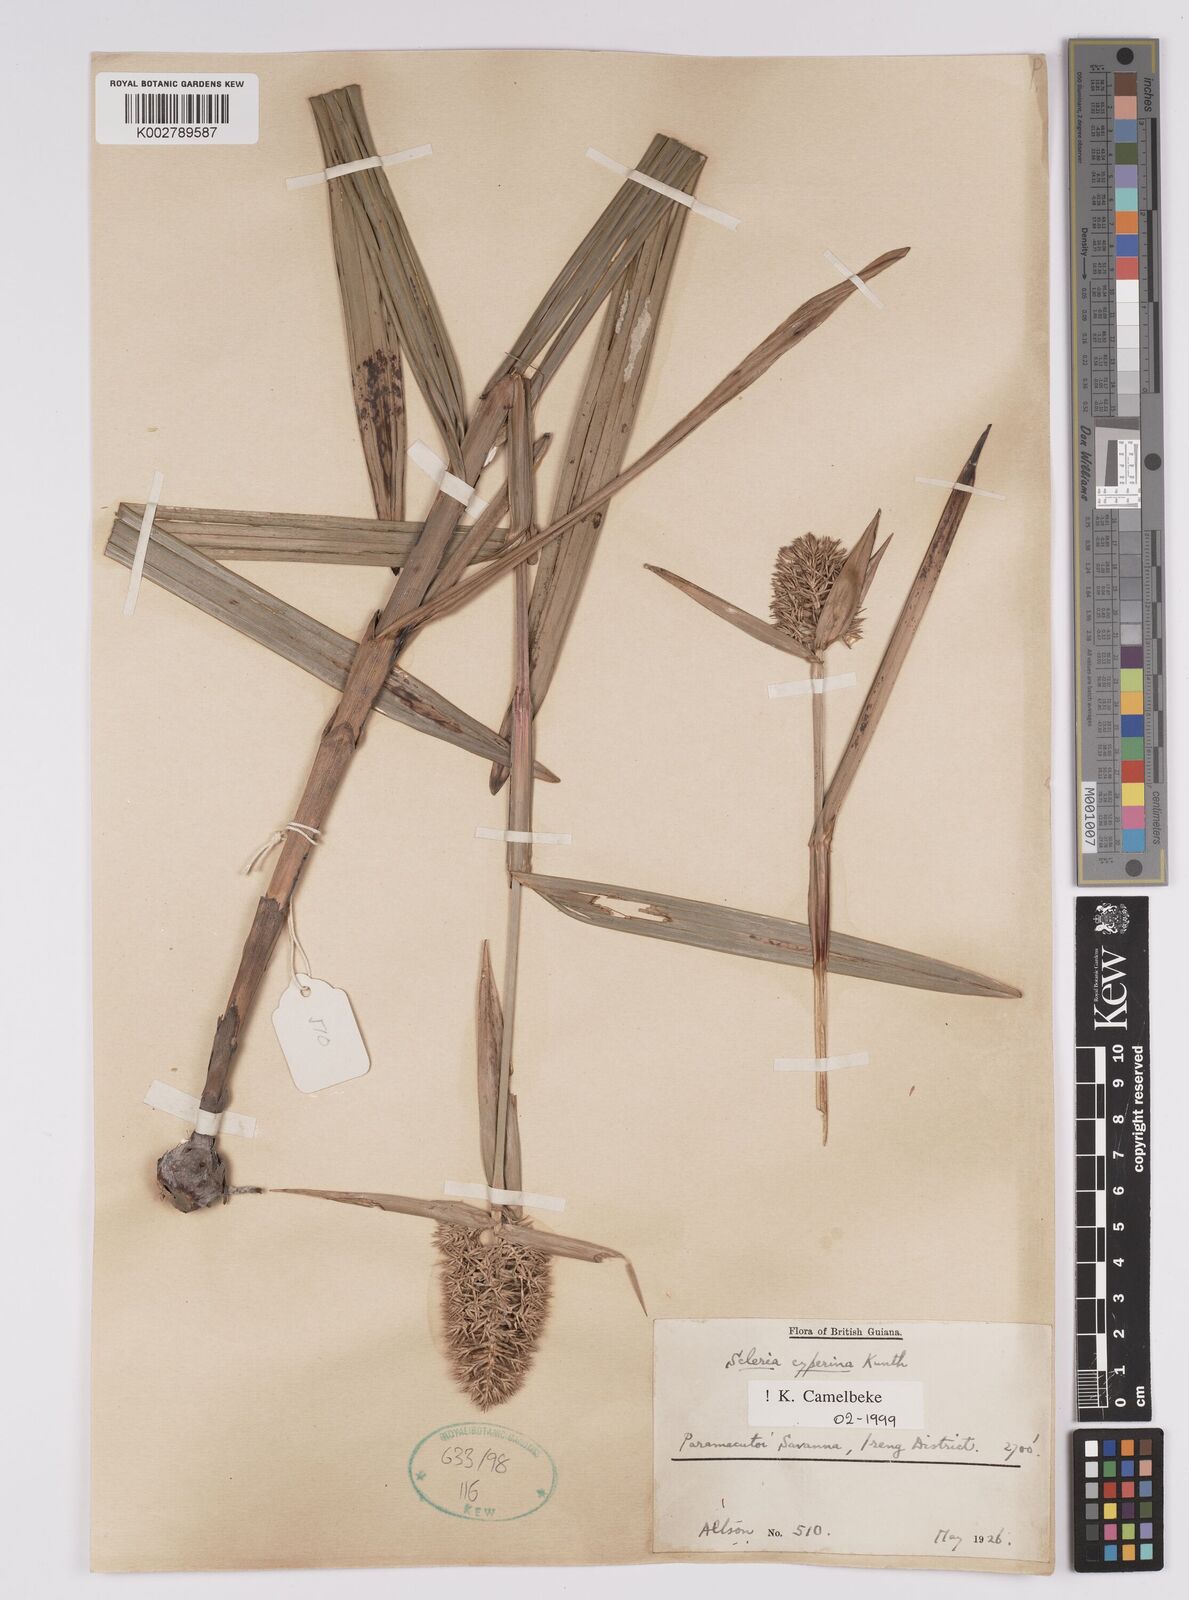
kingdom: Plantae
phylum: Tracheophyta
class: Liliopsida
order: Poales
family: Cyperaceae
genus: Scleria
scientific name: Scleria cyperina
